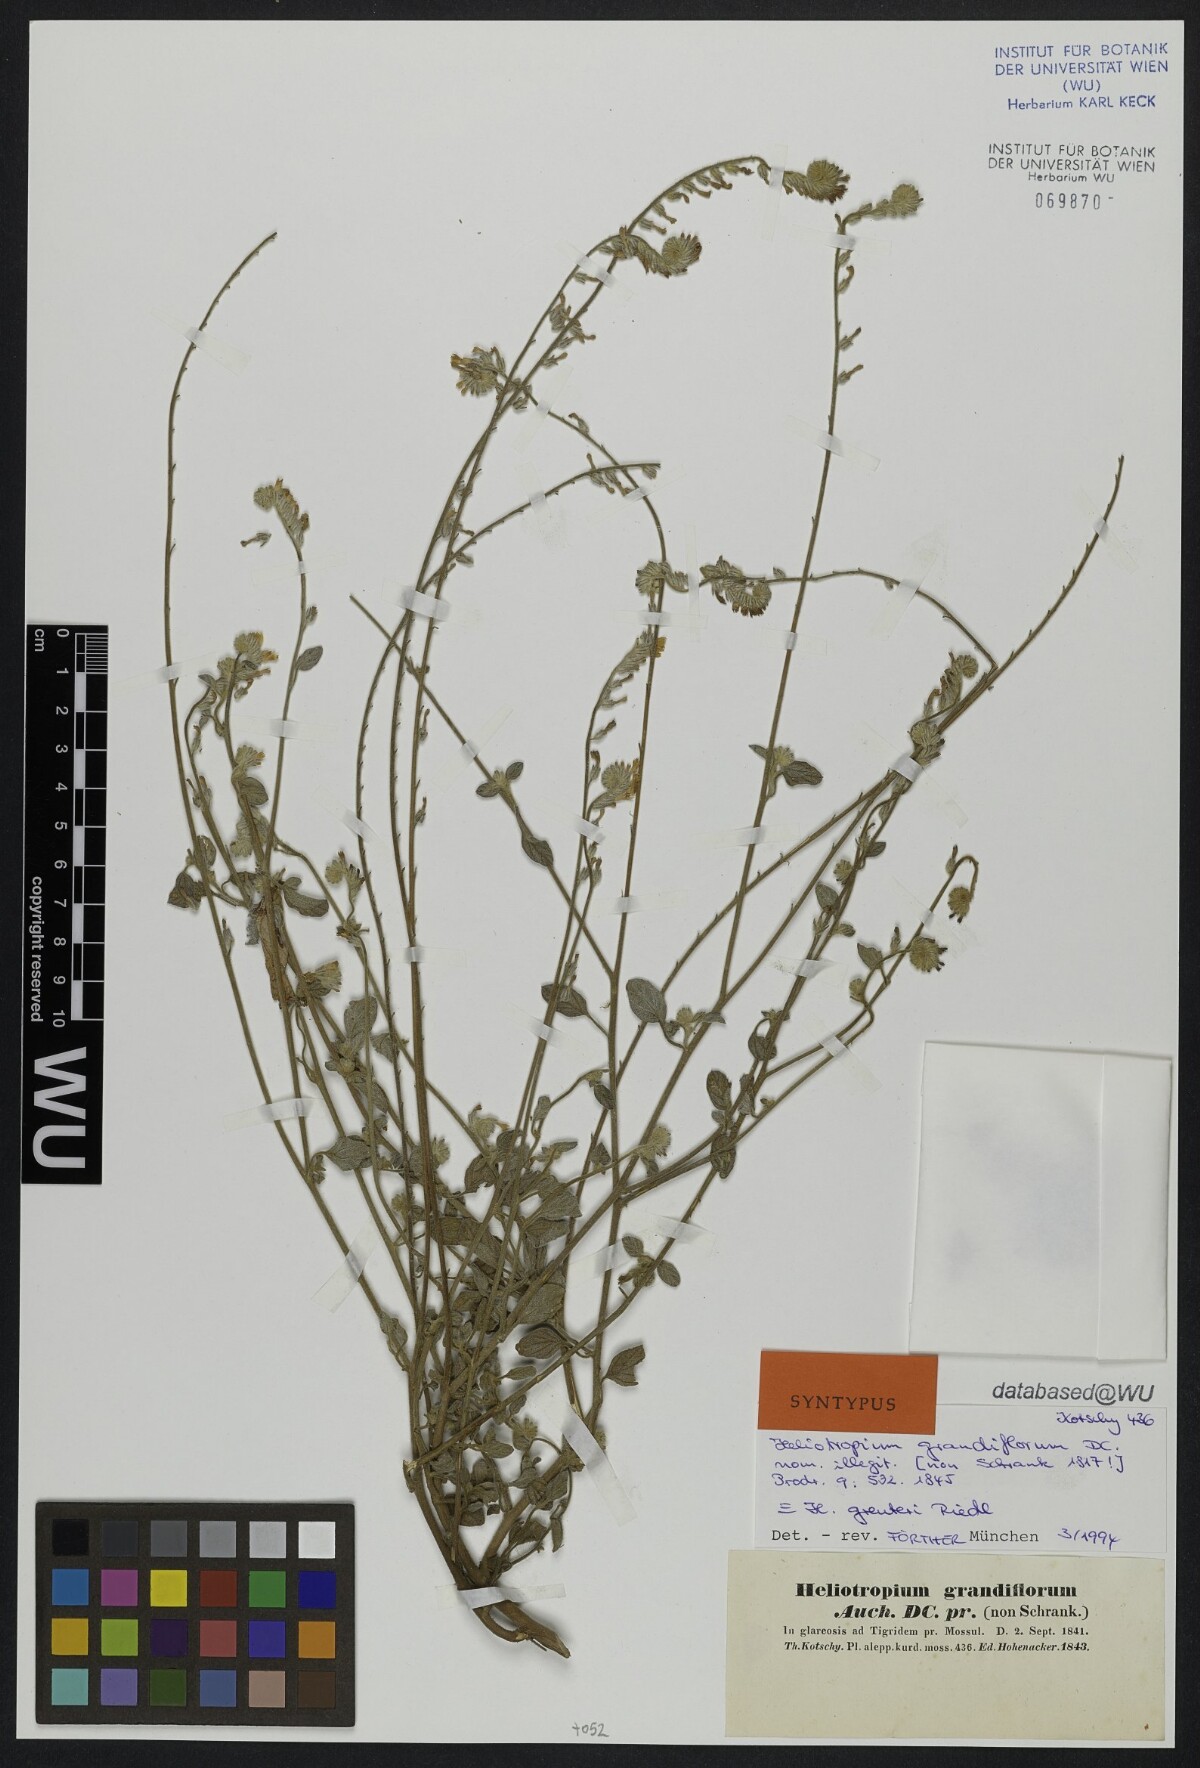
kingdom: Plantae
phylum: Tracheophyta
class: Magnoliopsida
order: Boraginales
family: Heliotropiaceae
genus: Heliotropium
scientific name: Heliotropium greuteri
